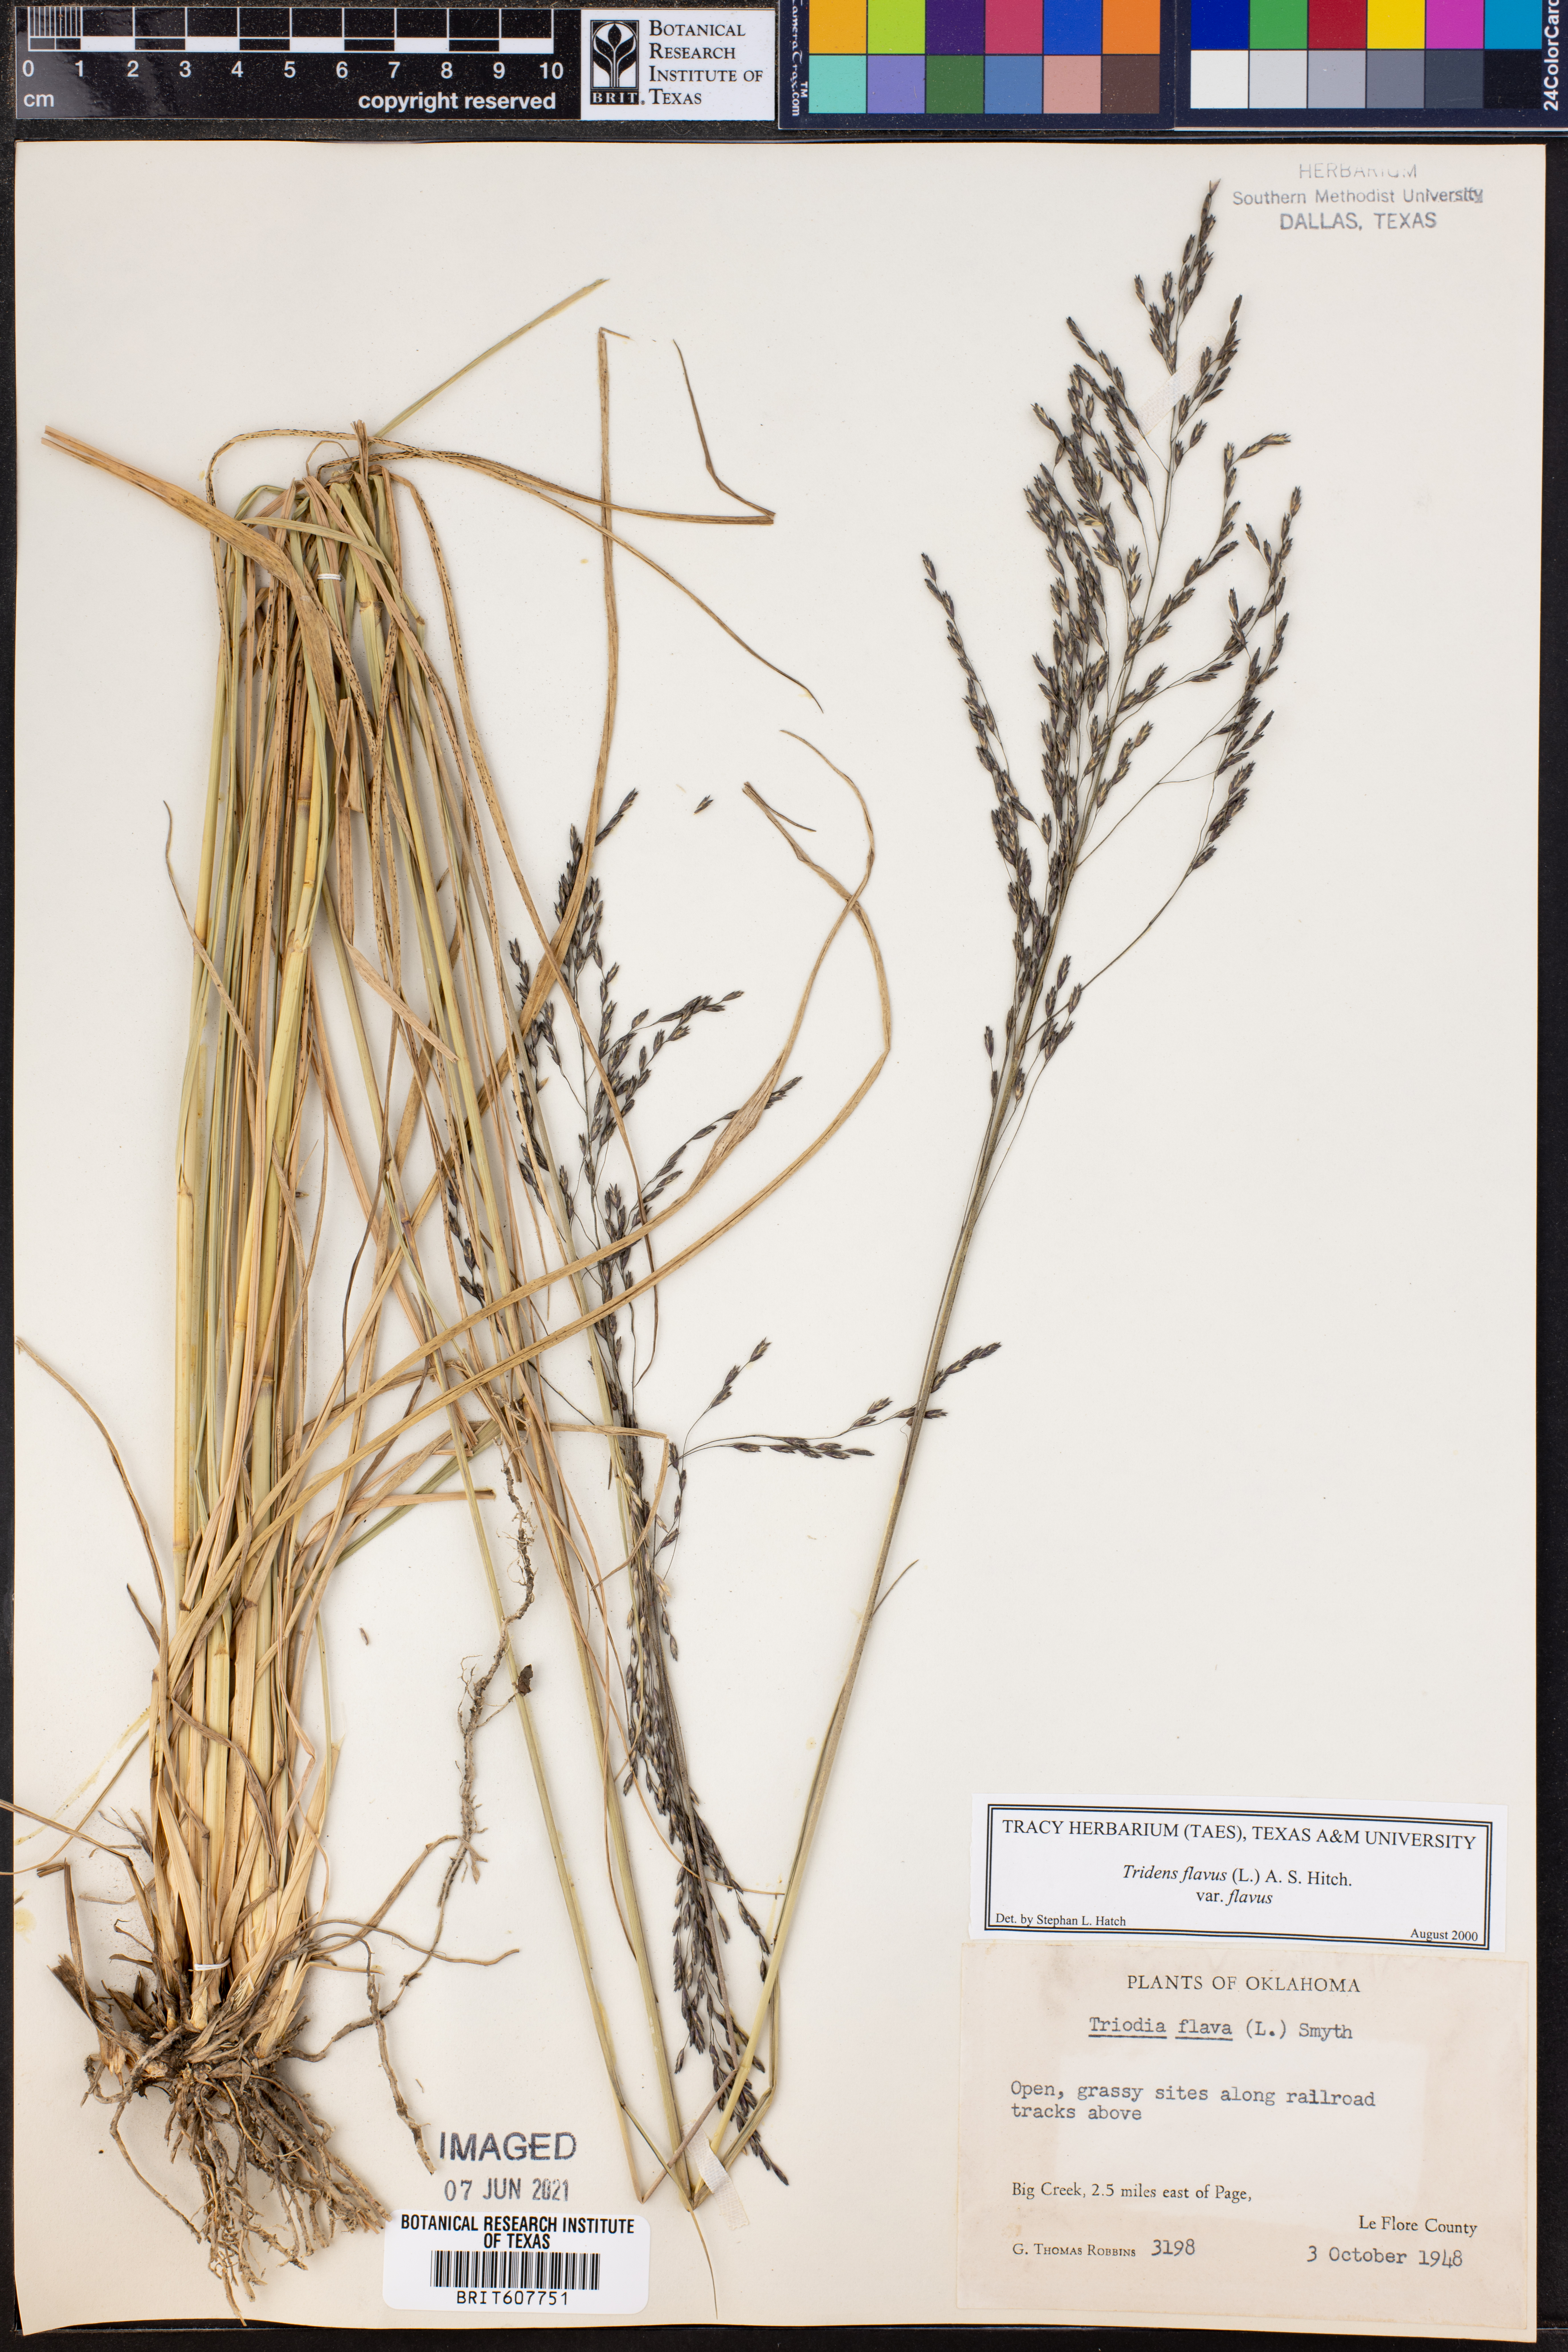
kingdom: Plantae
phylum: Tracheophyta
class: Liliopsida
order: Poales
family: Poaceae
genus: Tridens
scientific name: Tridens flavus
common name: Purpletop
